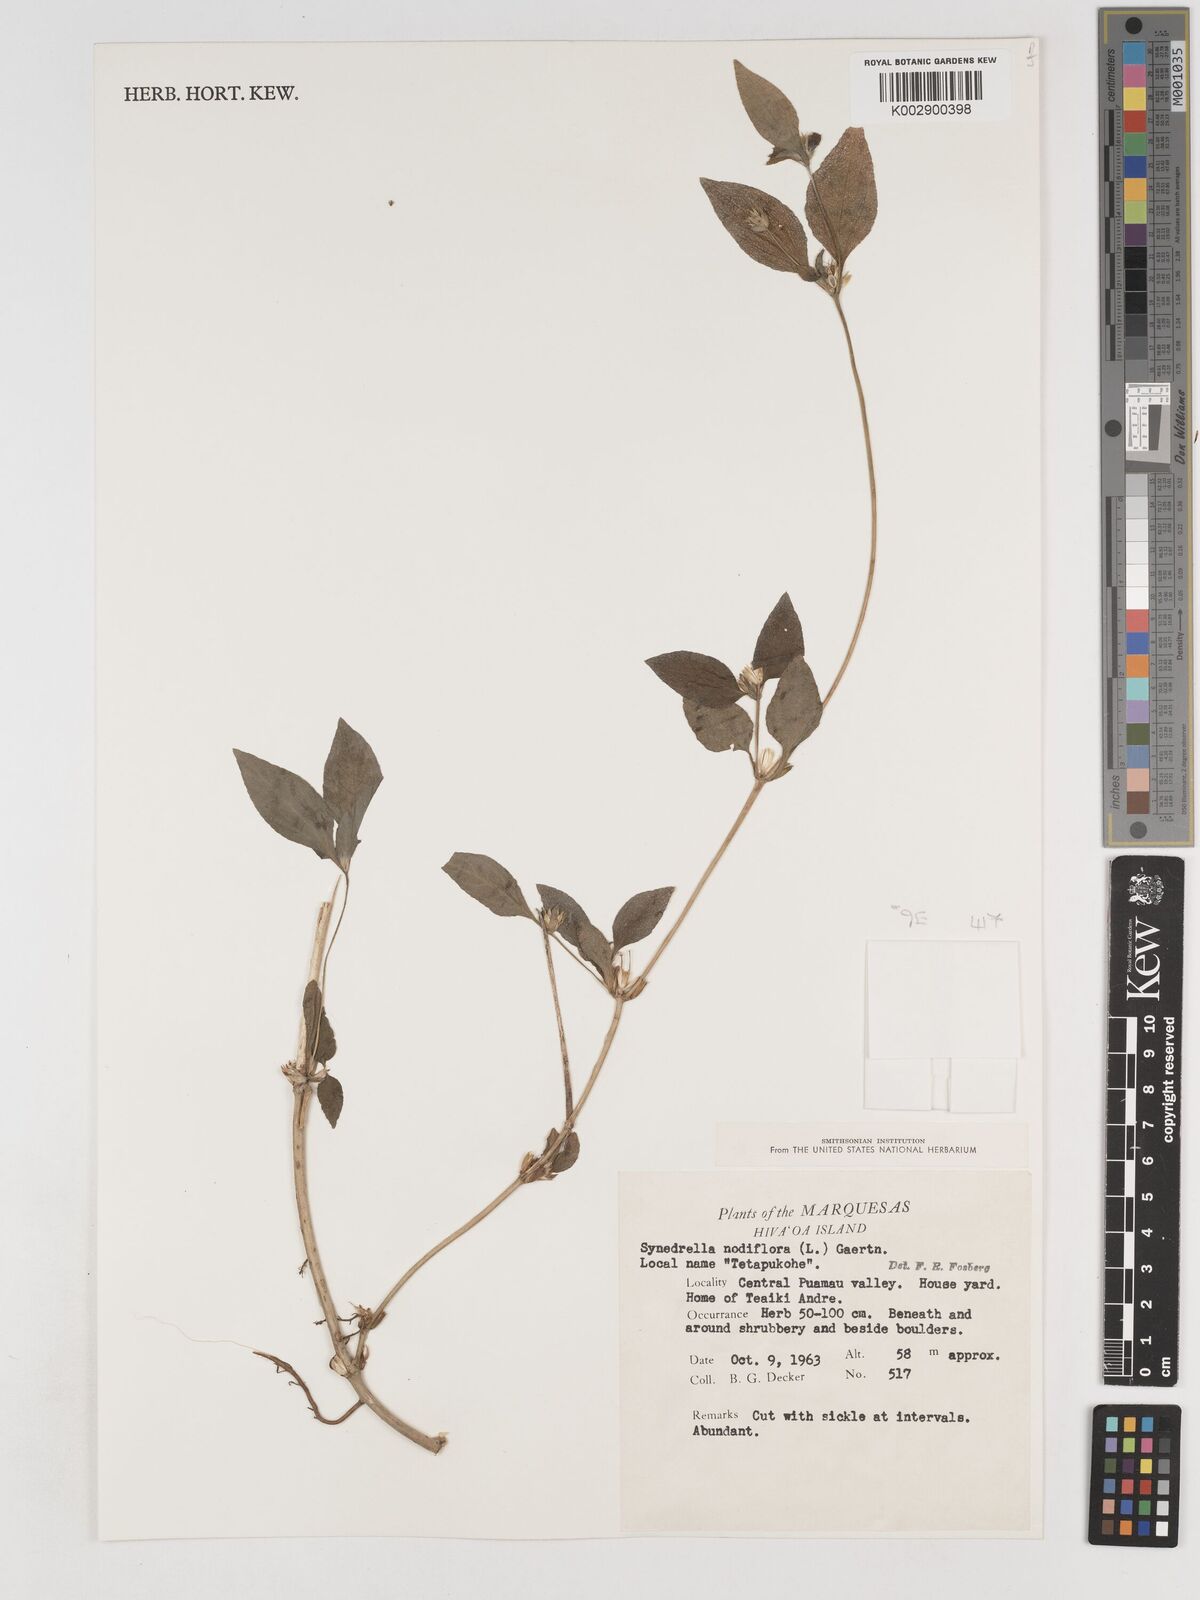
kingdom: Plantae
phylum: Tracheophyta
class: Magnoliopsida
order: Asterales
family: Asteraceae
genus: Synedrella
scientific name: Synedrella nodiflora
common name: Nodeweed
